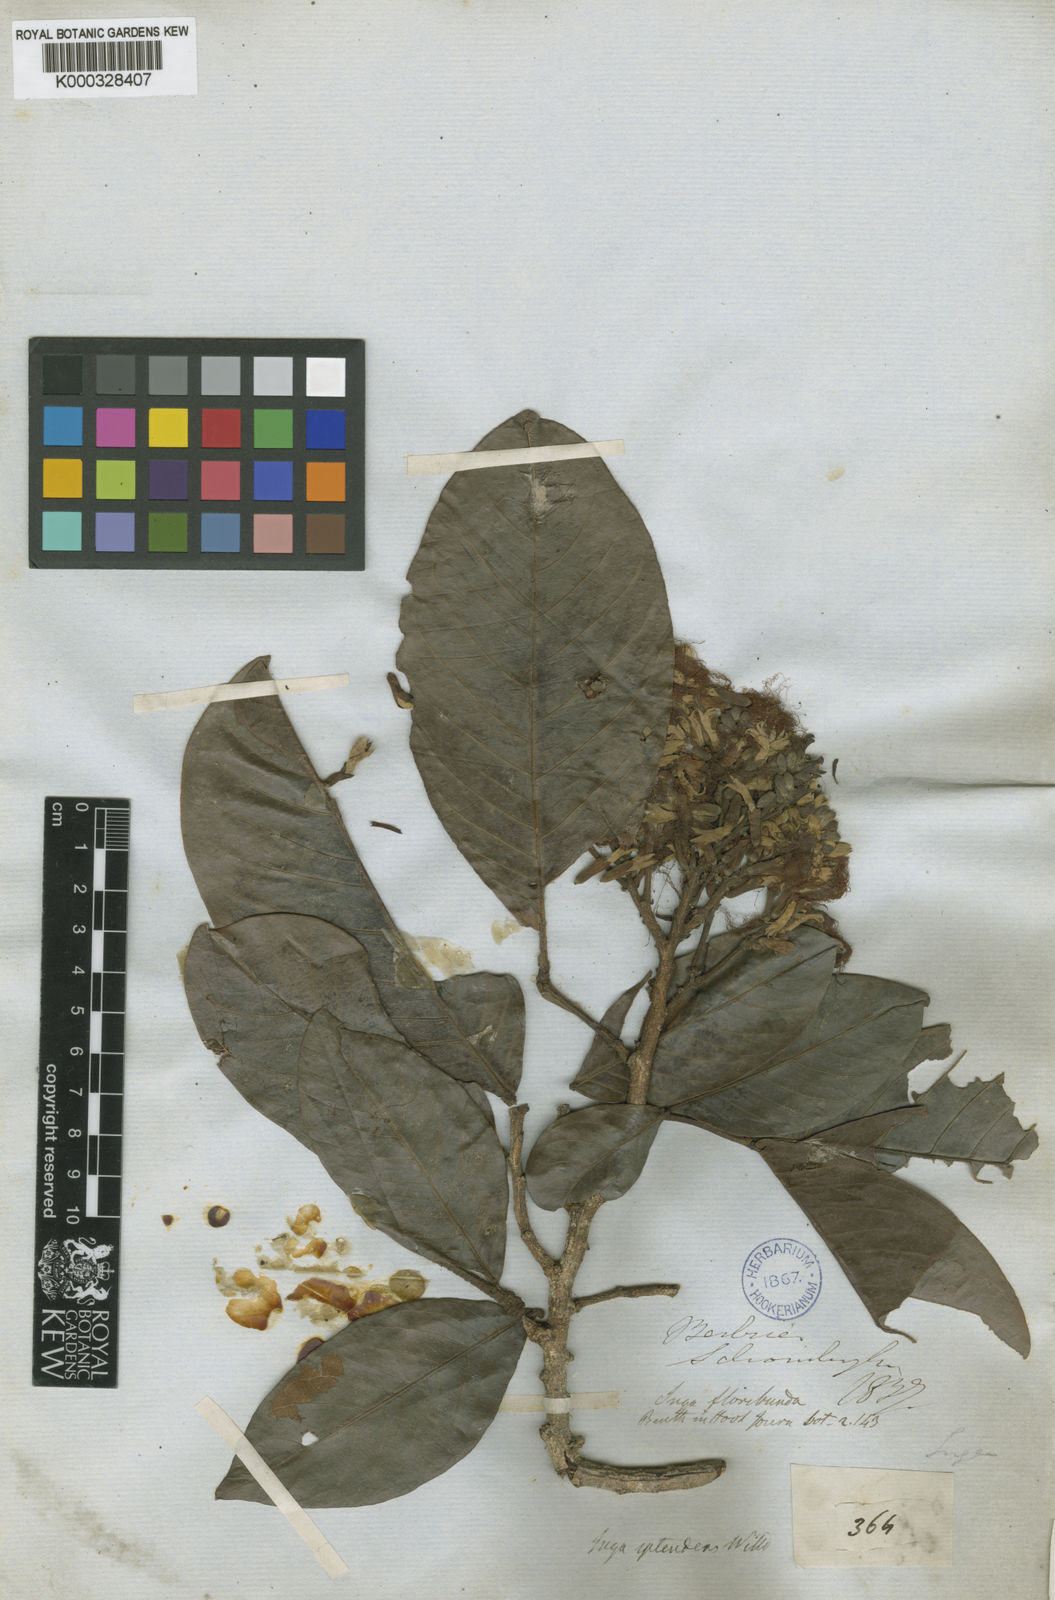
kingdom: Plantae
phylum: Tracheophyta
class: Magnoliopsida
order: Fabales
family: Fabaceae
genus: Inga
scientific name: Inga splendens
